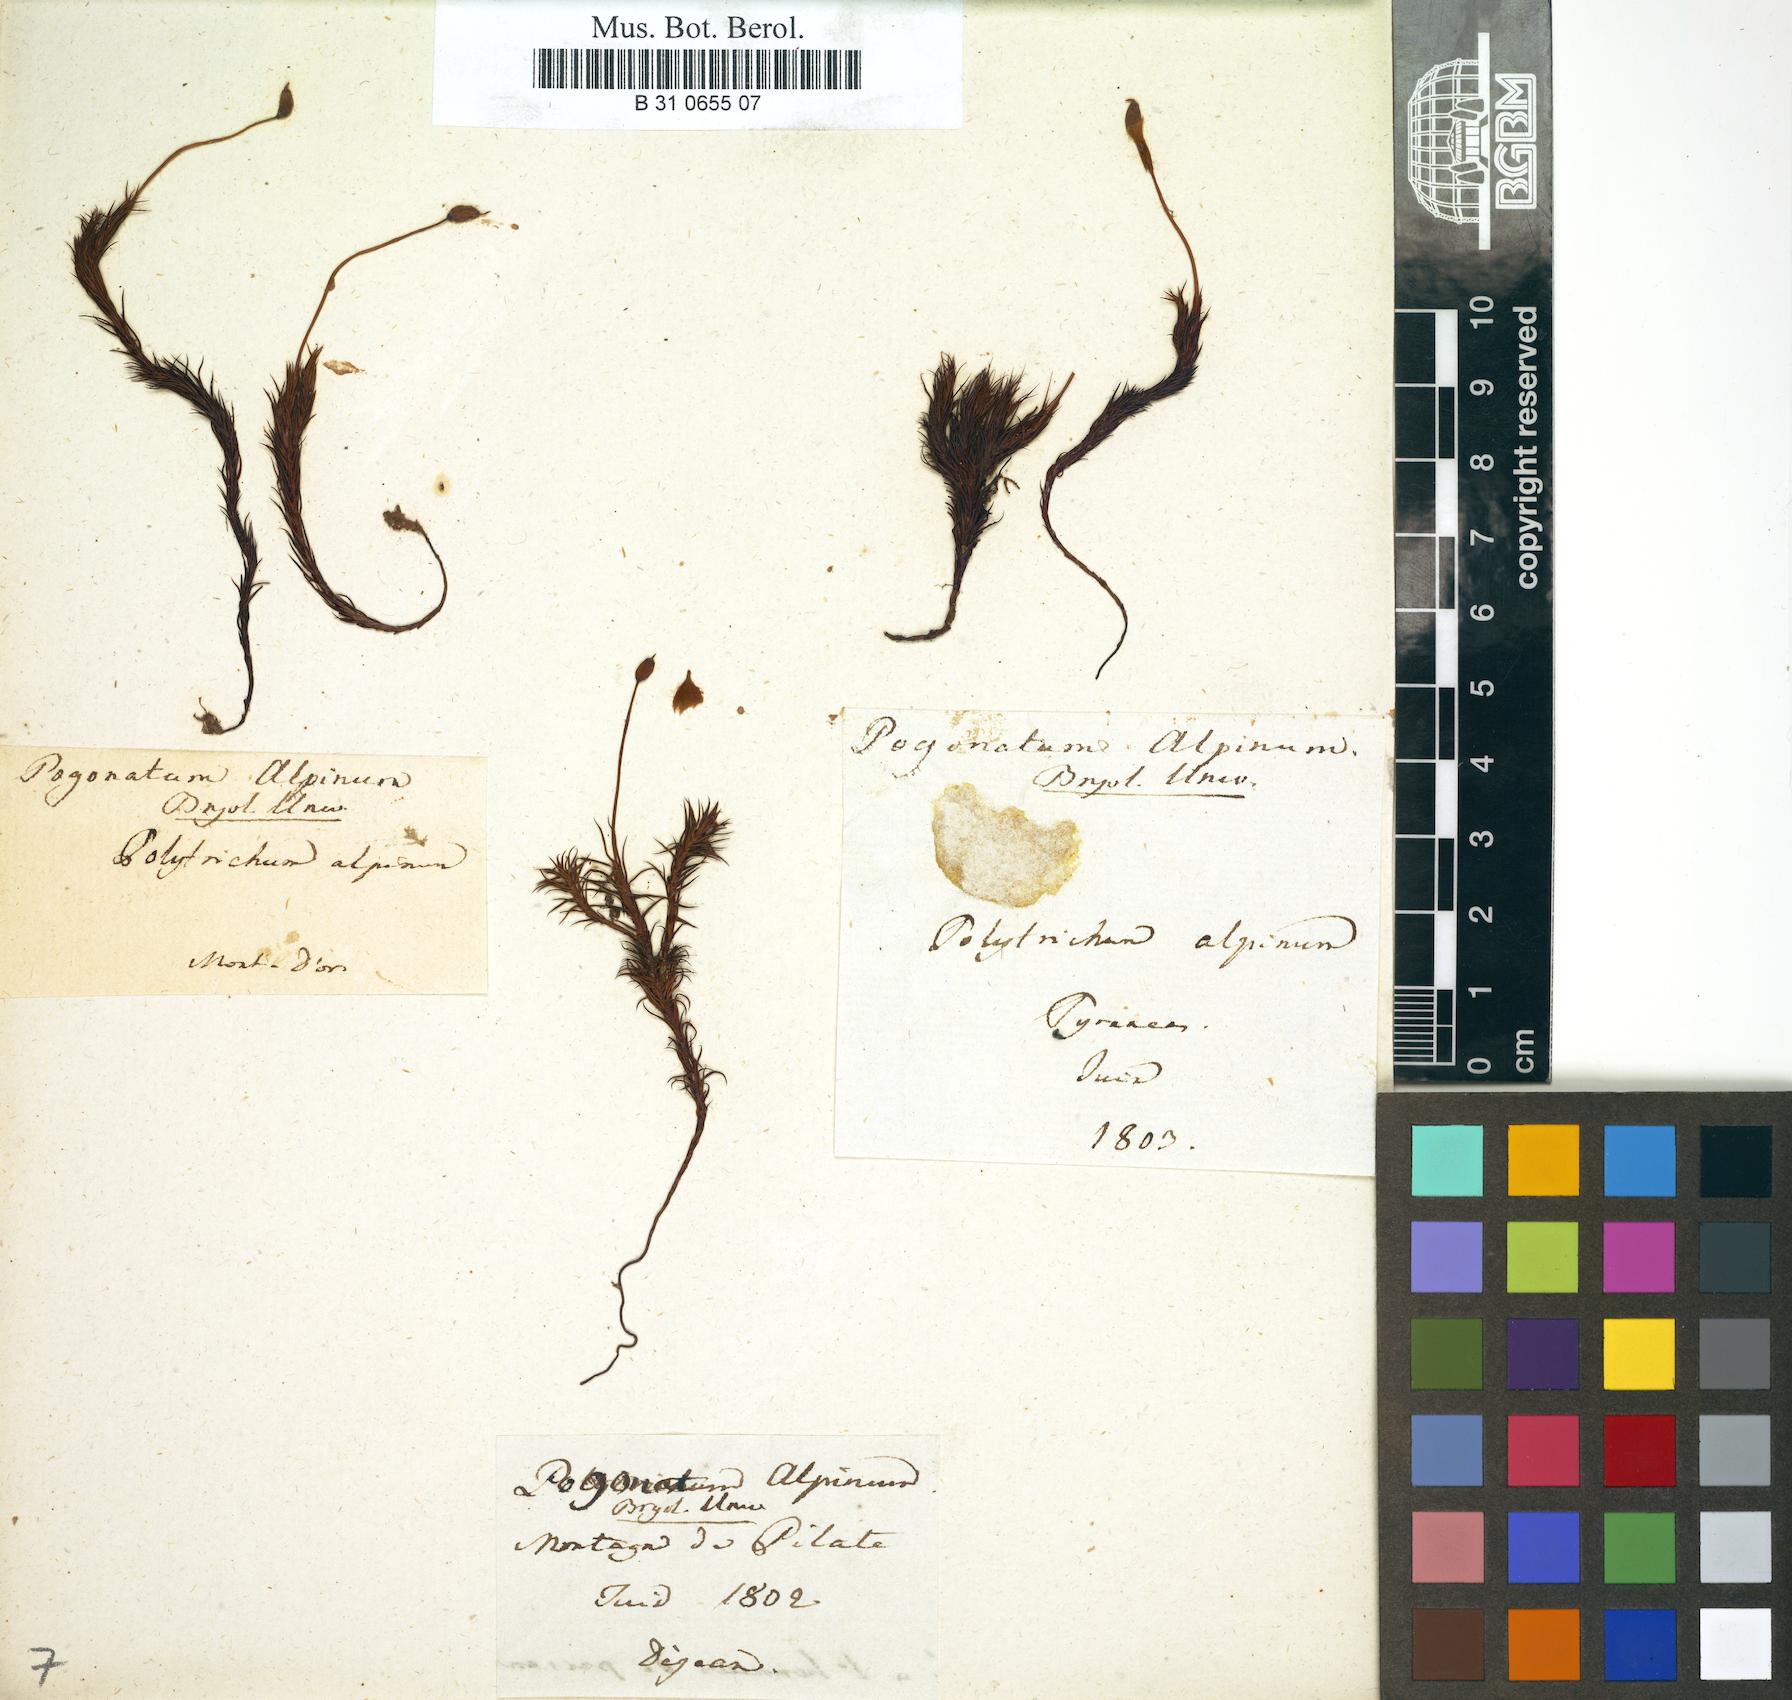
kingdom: Plantae
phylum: Bryophyta
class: Polytrichopsida
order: Polytrichales
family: Polytrichaceae
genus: Polytrichastrum
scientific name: Polytrichastrum alpinum
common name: Alpine haircap
